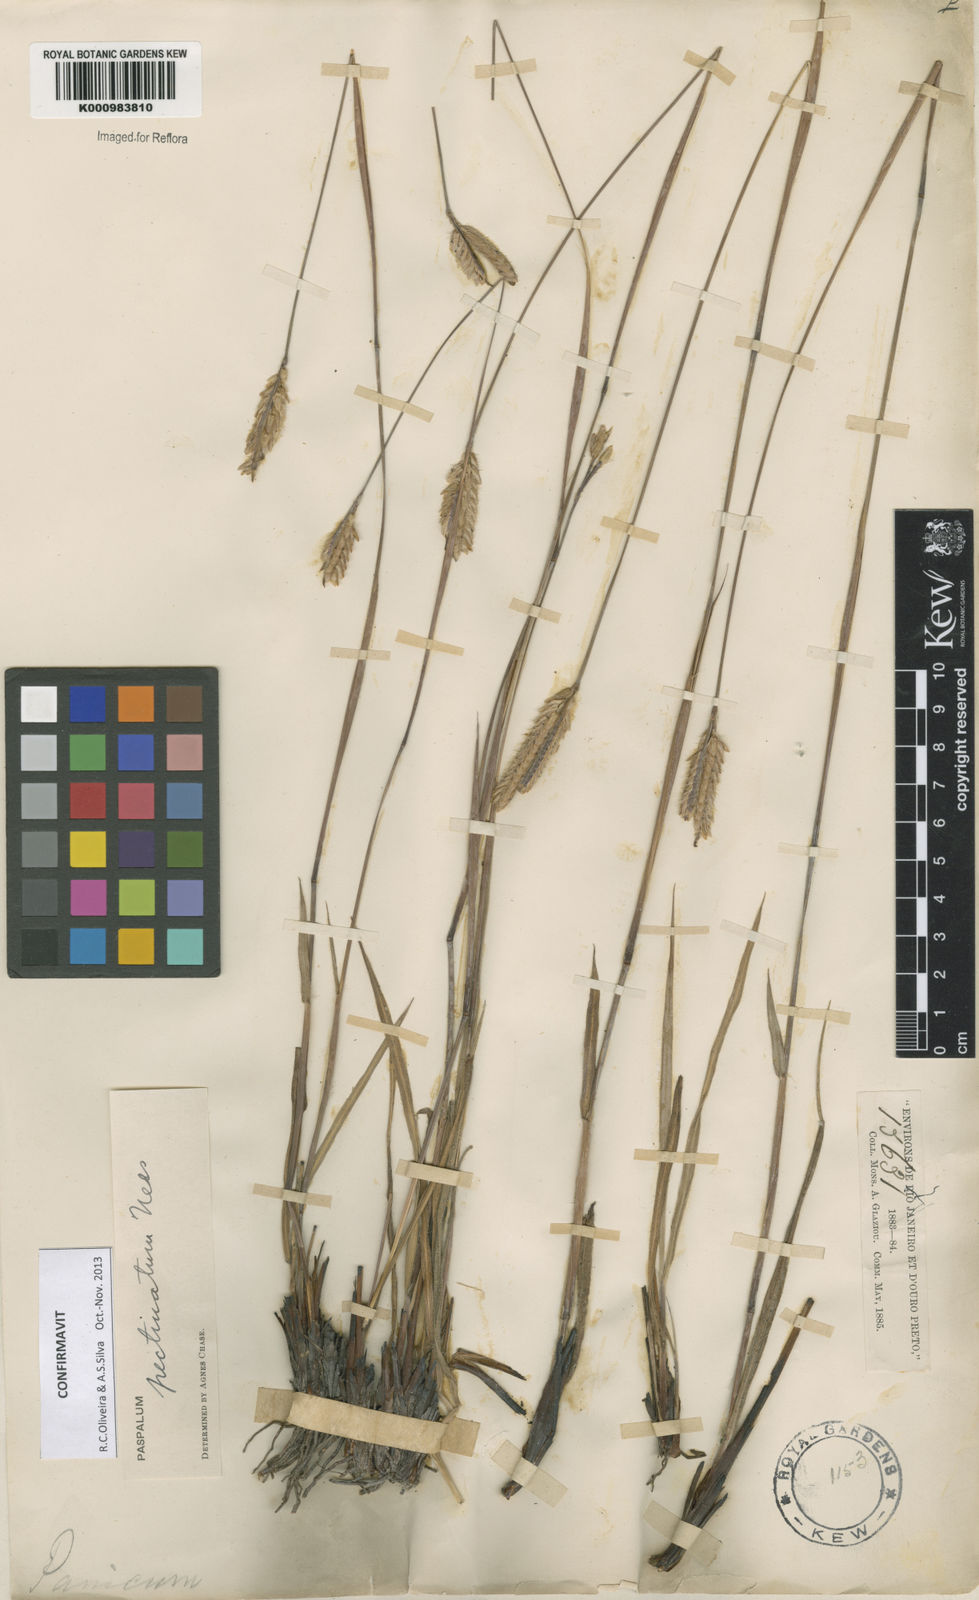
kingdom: Plantae
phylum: Tracheophyta
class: Liliopsida
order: Poales
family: Poaceae
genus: Paspalum
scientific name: Paspalum
